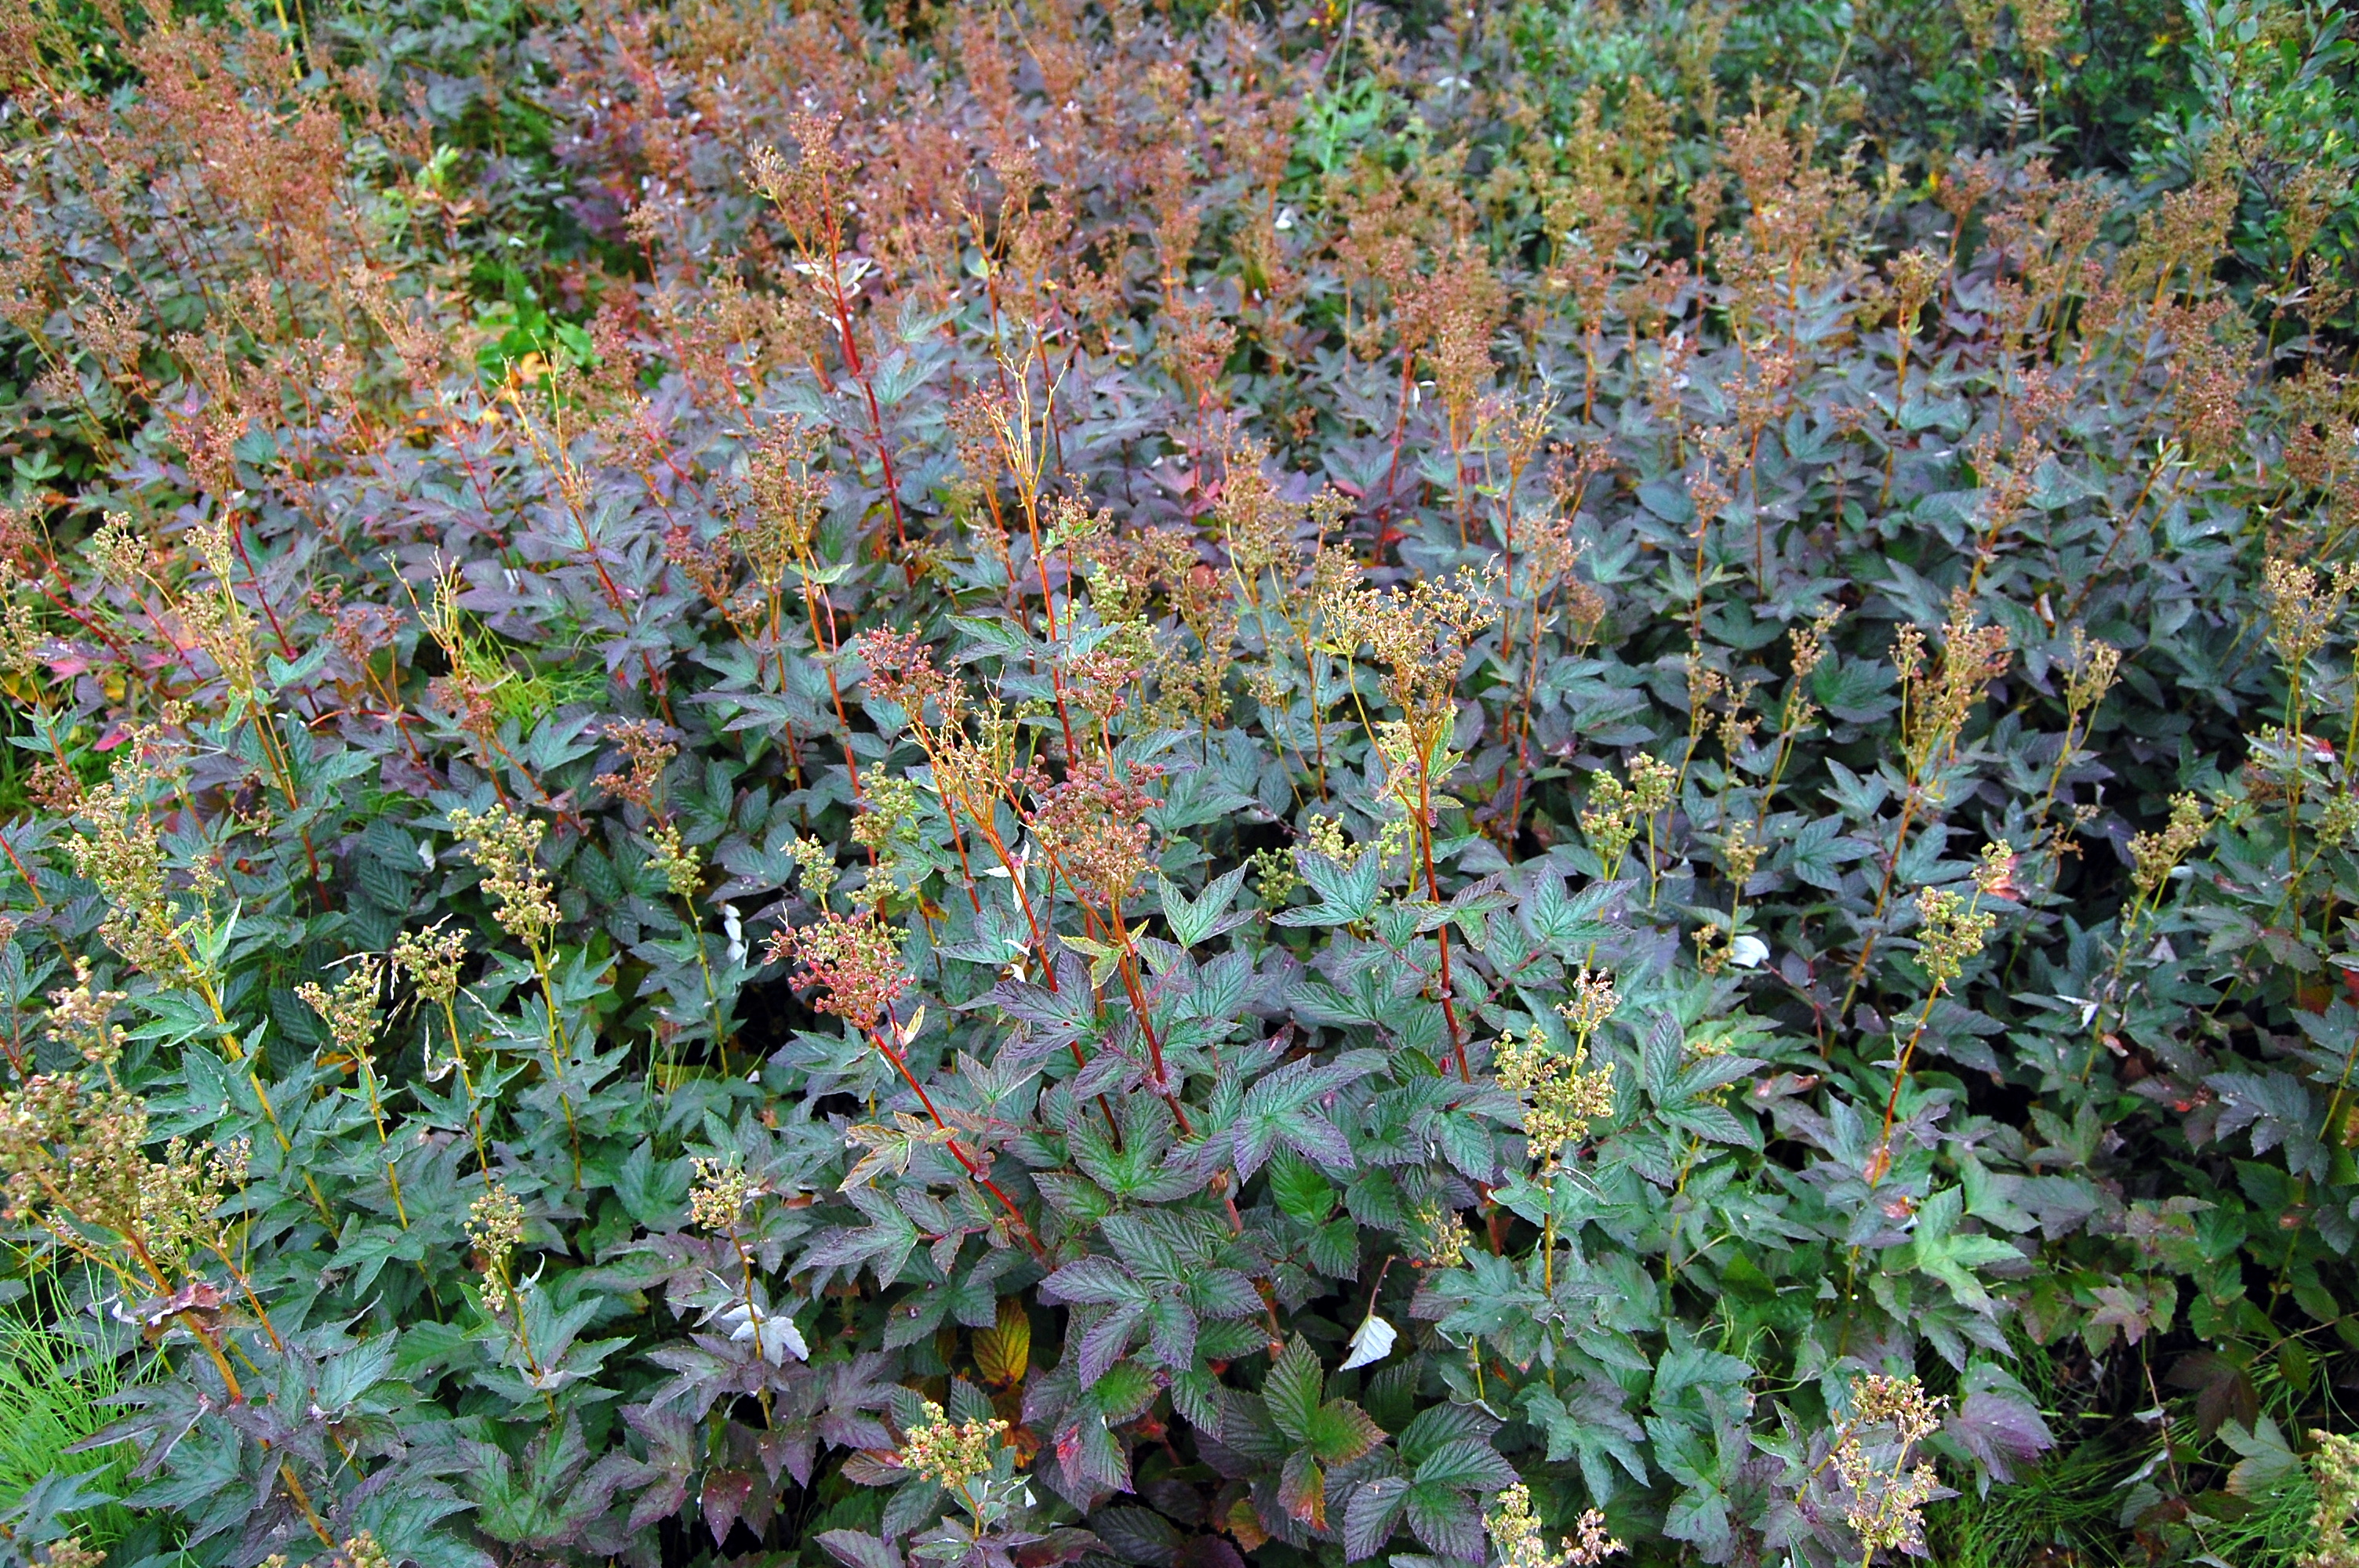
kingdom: Plantae
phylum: Tracheophyta
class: Magnoliopsida
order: Rosales
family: Rosaceae
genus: Filipendula
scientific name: Filipendula ulmaria
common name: Meadowsweet
